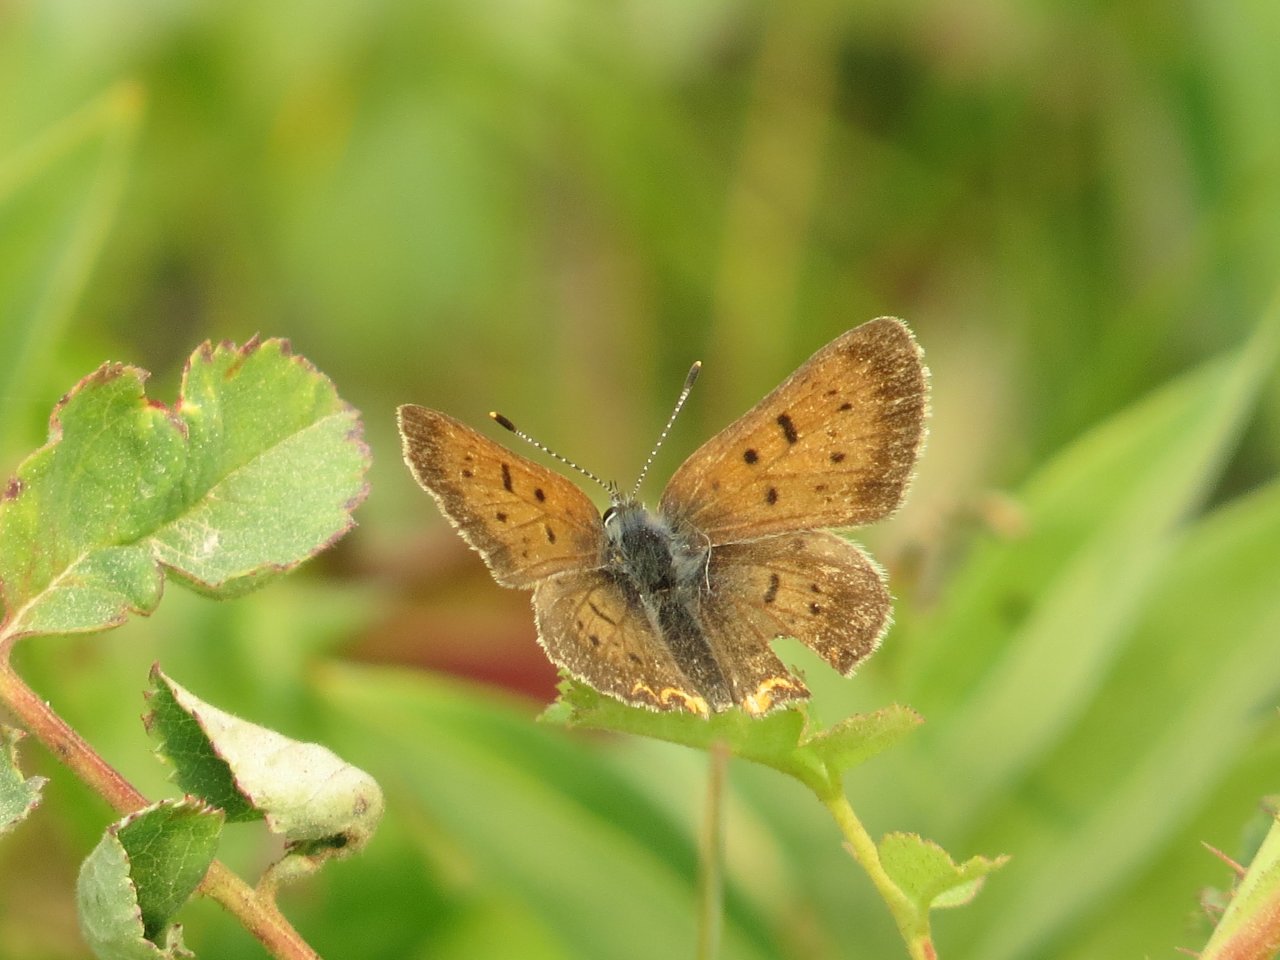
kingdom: Animalia
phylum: Arthropoda
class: Insecta
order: Lepidoptera
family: Lycaenidae
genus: Epidemia
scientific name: Epidemia dorcas
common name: Dorcas Copper
